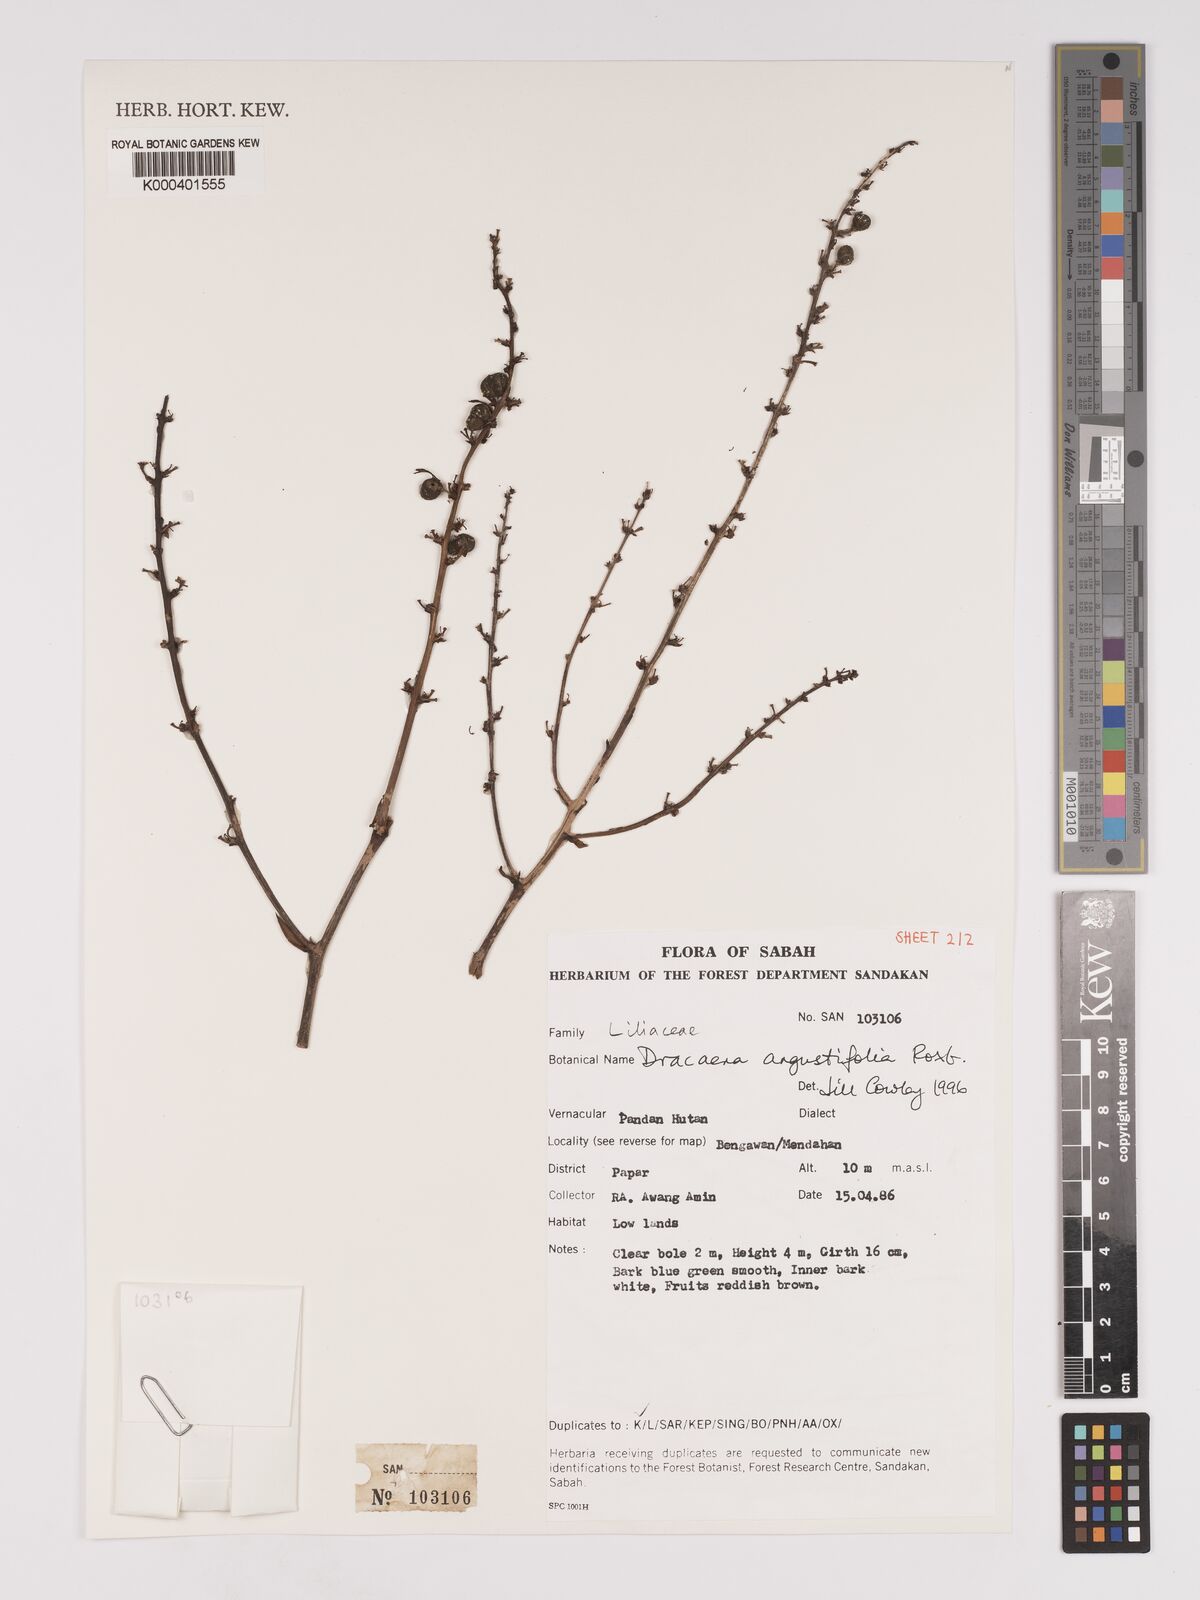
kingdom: Plantae
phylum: Tracheophyta
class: Liliopsida
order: Asparagales
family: Asparagaceae
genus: Dracaena
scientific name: Dracaena angustifolia
